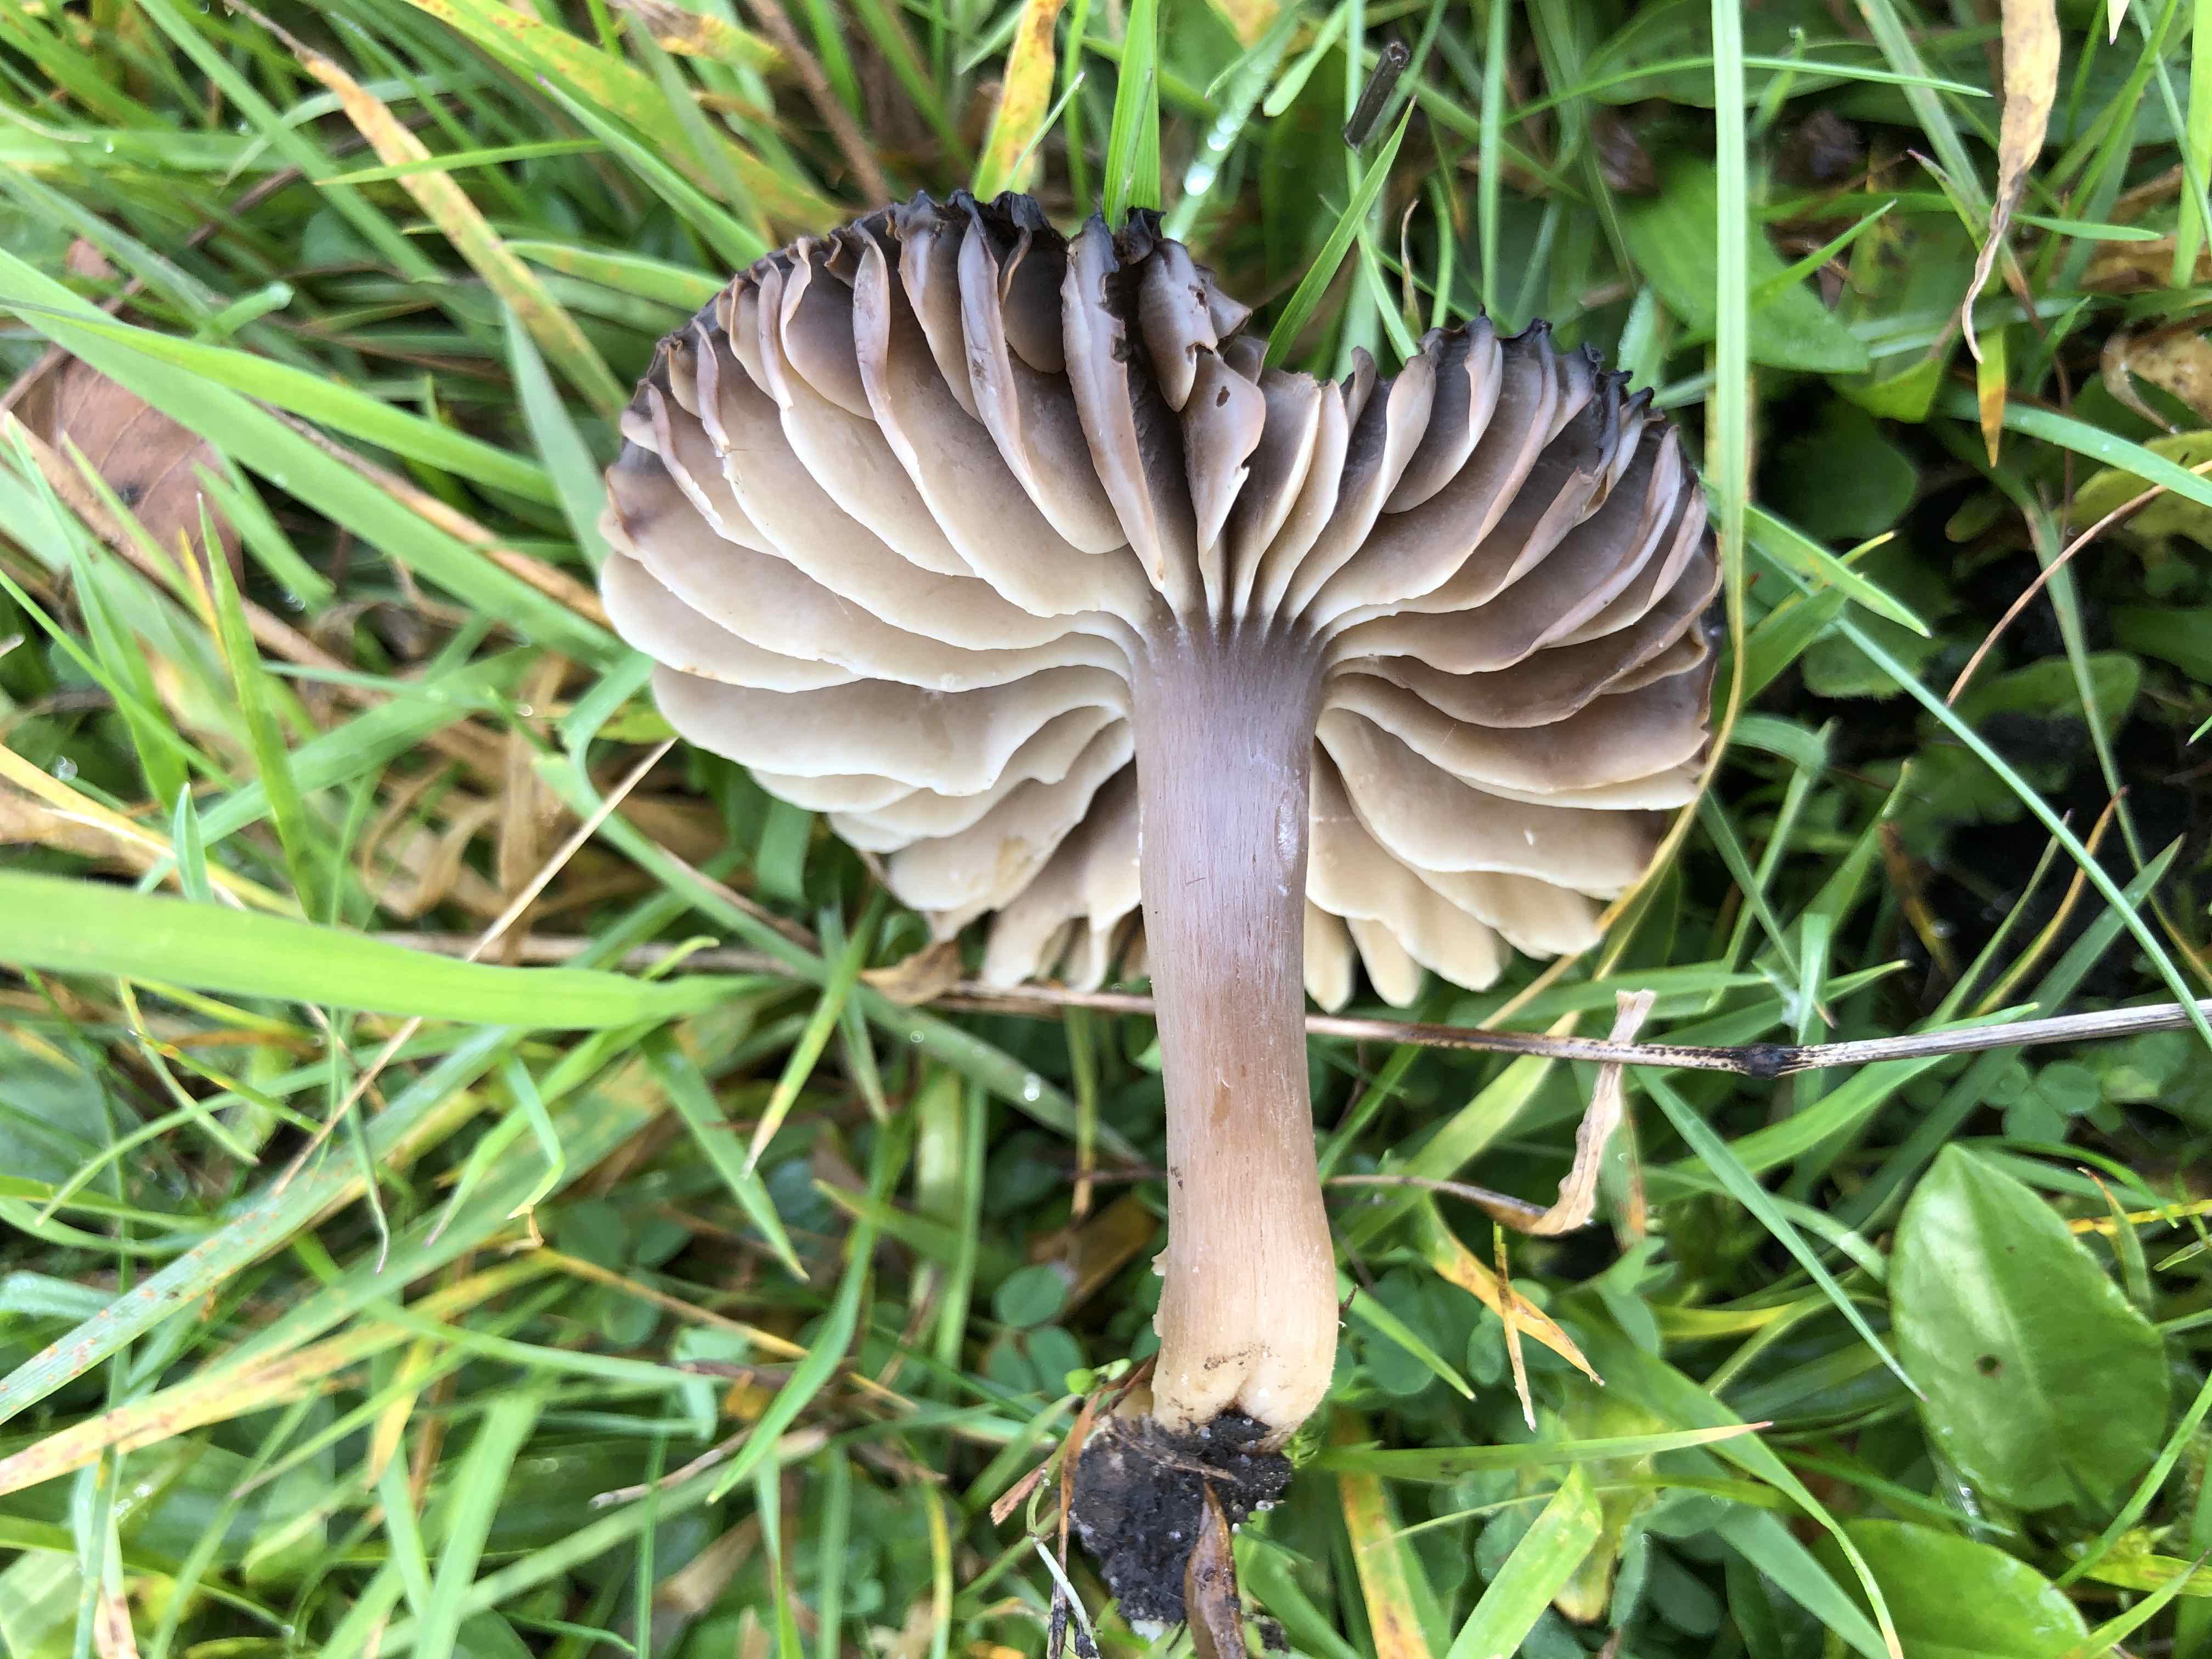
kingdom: Fungi
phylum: Basidiomycota
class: Agaricomycetes
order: Agaricales
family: Hygrophoraceae
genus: Neohygrocybe
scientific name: Neohygrocybe nitrata
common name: stinkende vokshat
